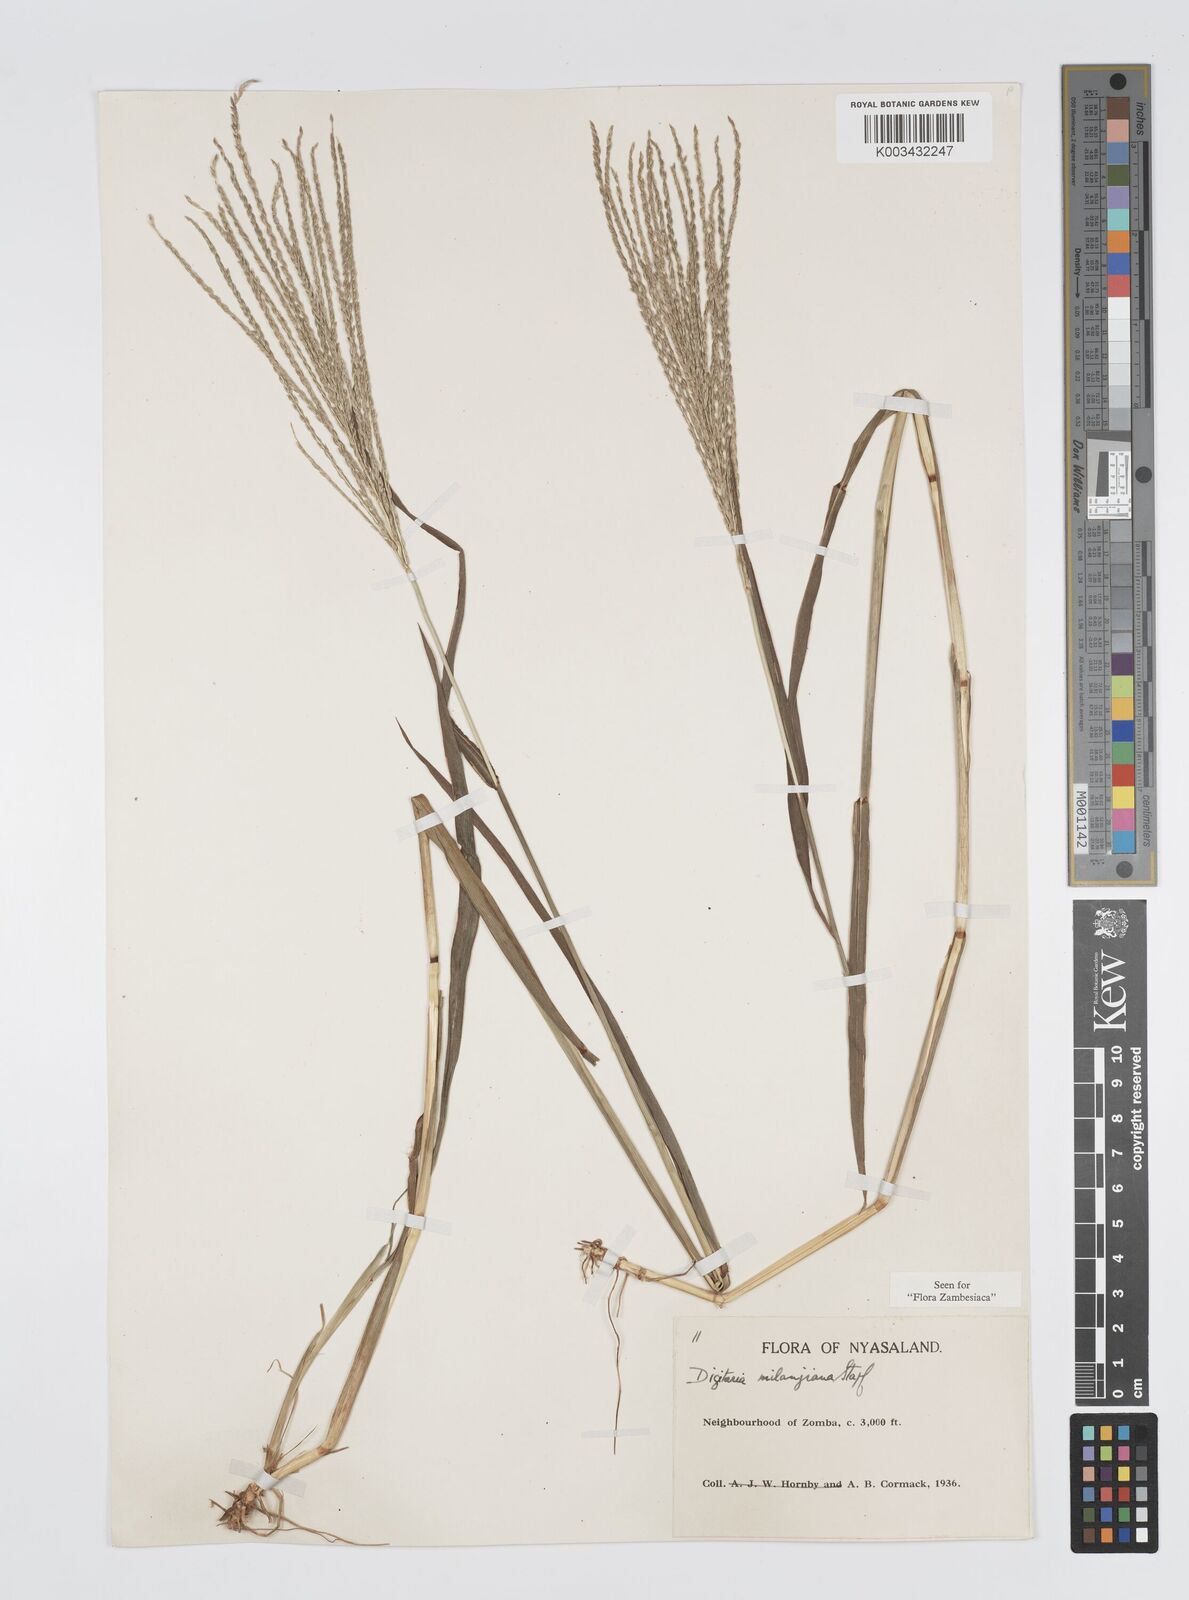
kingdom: Plantae
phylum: Tracheophyta
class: Liliopsida
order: Poales
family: Poaceae
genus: Digitaria
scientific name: Digitaria milanjiana
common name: Madagascar crabgrass
